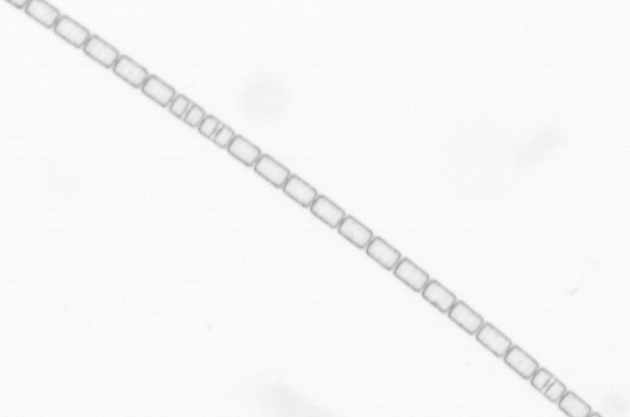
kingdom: Chromista
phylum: Ochrophyta
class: Bacillariophyceae
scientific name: Bacillariophyceae
